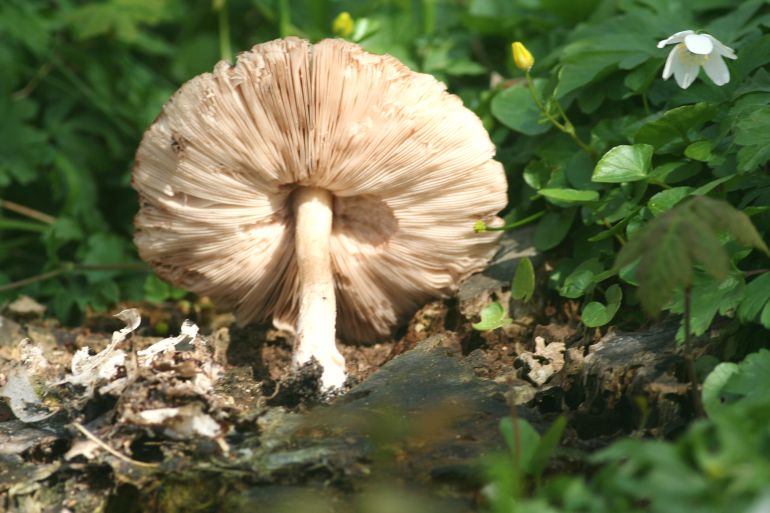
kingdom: Fungi
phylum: Basidiomycota
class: Agaricomycetes
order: Agaricales
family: Pluteaceae
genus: Pluteus
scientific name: Pluteus cervinus
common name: sodfarvet skærmhat
